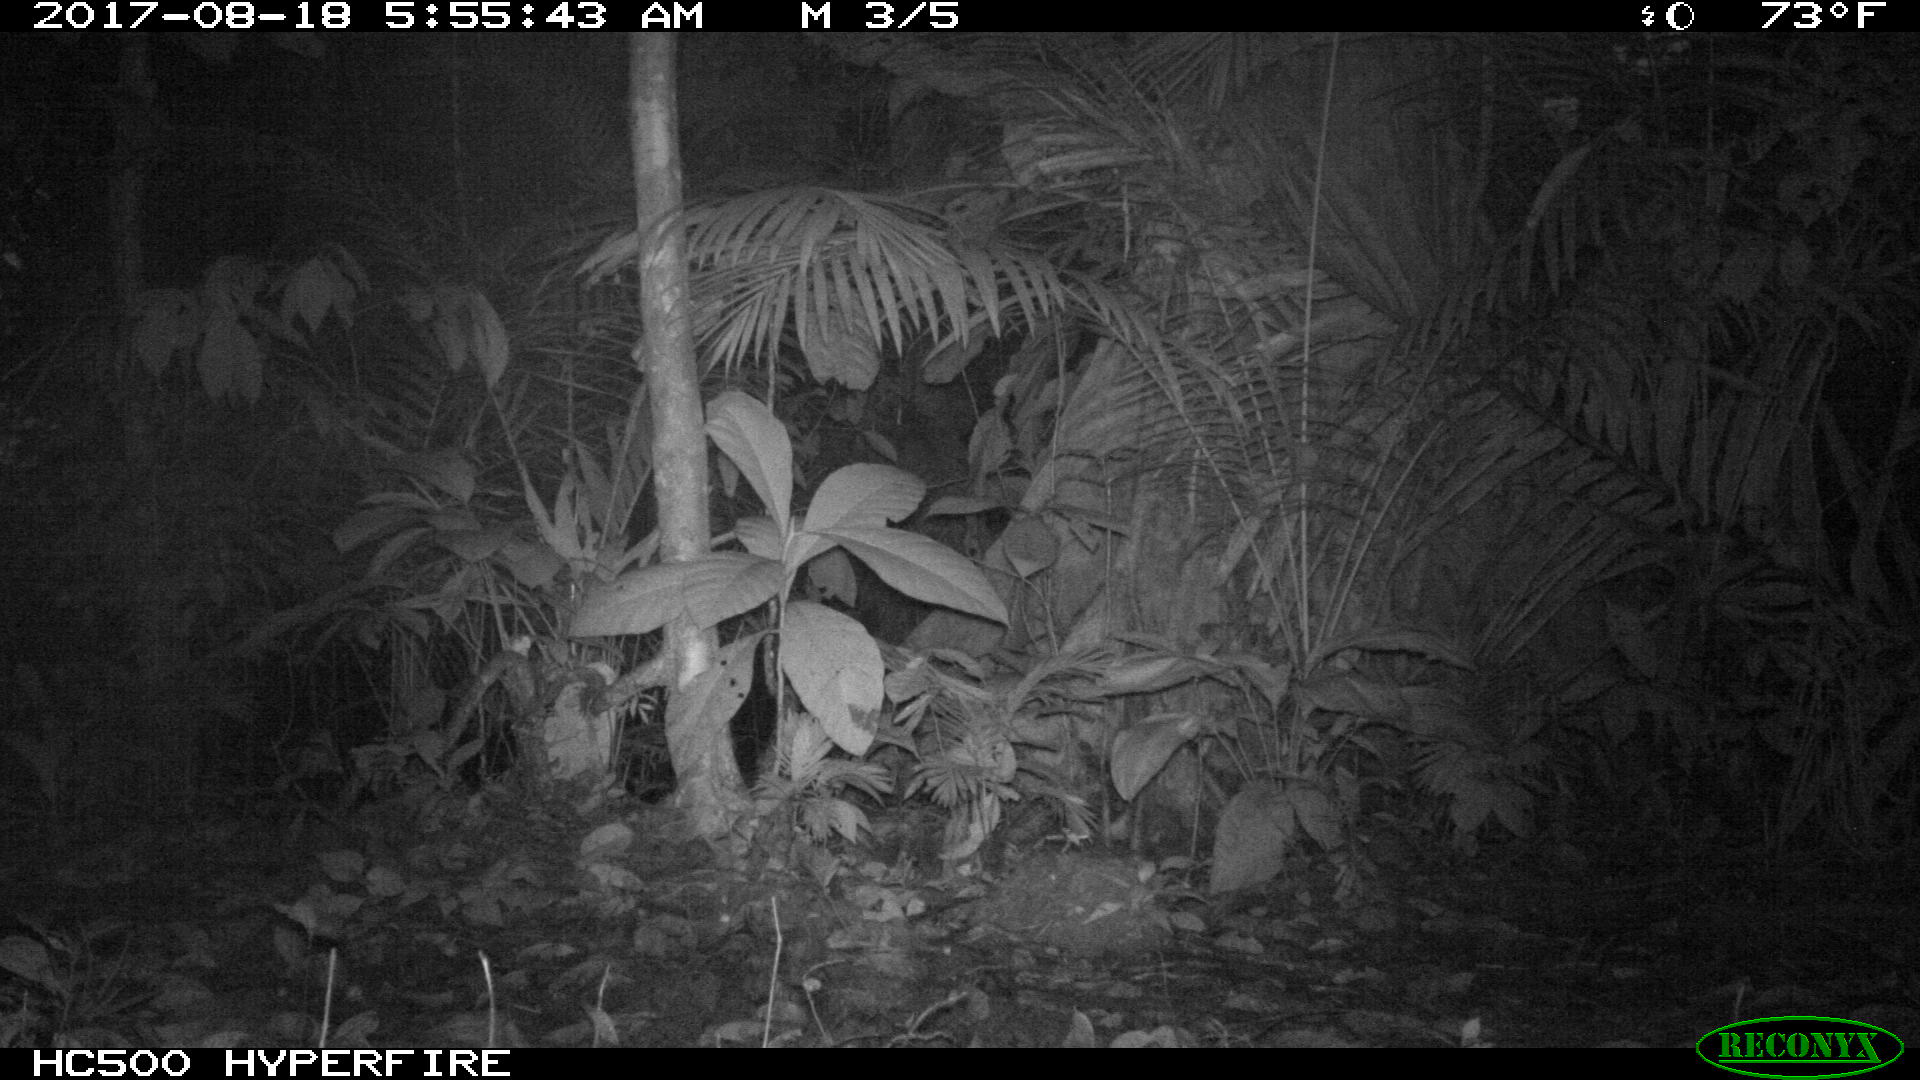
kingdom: Animalia
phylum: Chordata
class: Mammalia
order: Rodentia
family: Dasyproctidae
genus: Dasyprocta
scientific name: Dasyprocta punctata
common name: Central american agouti
